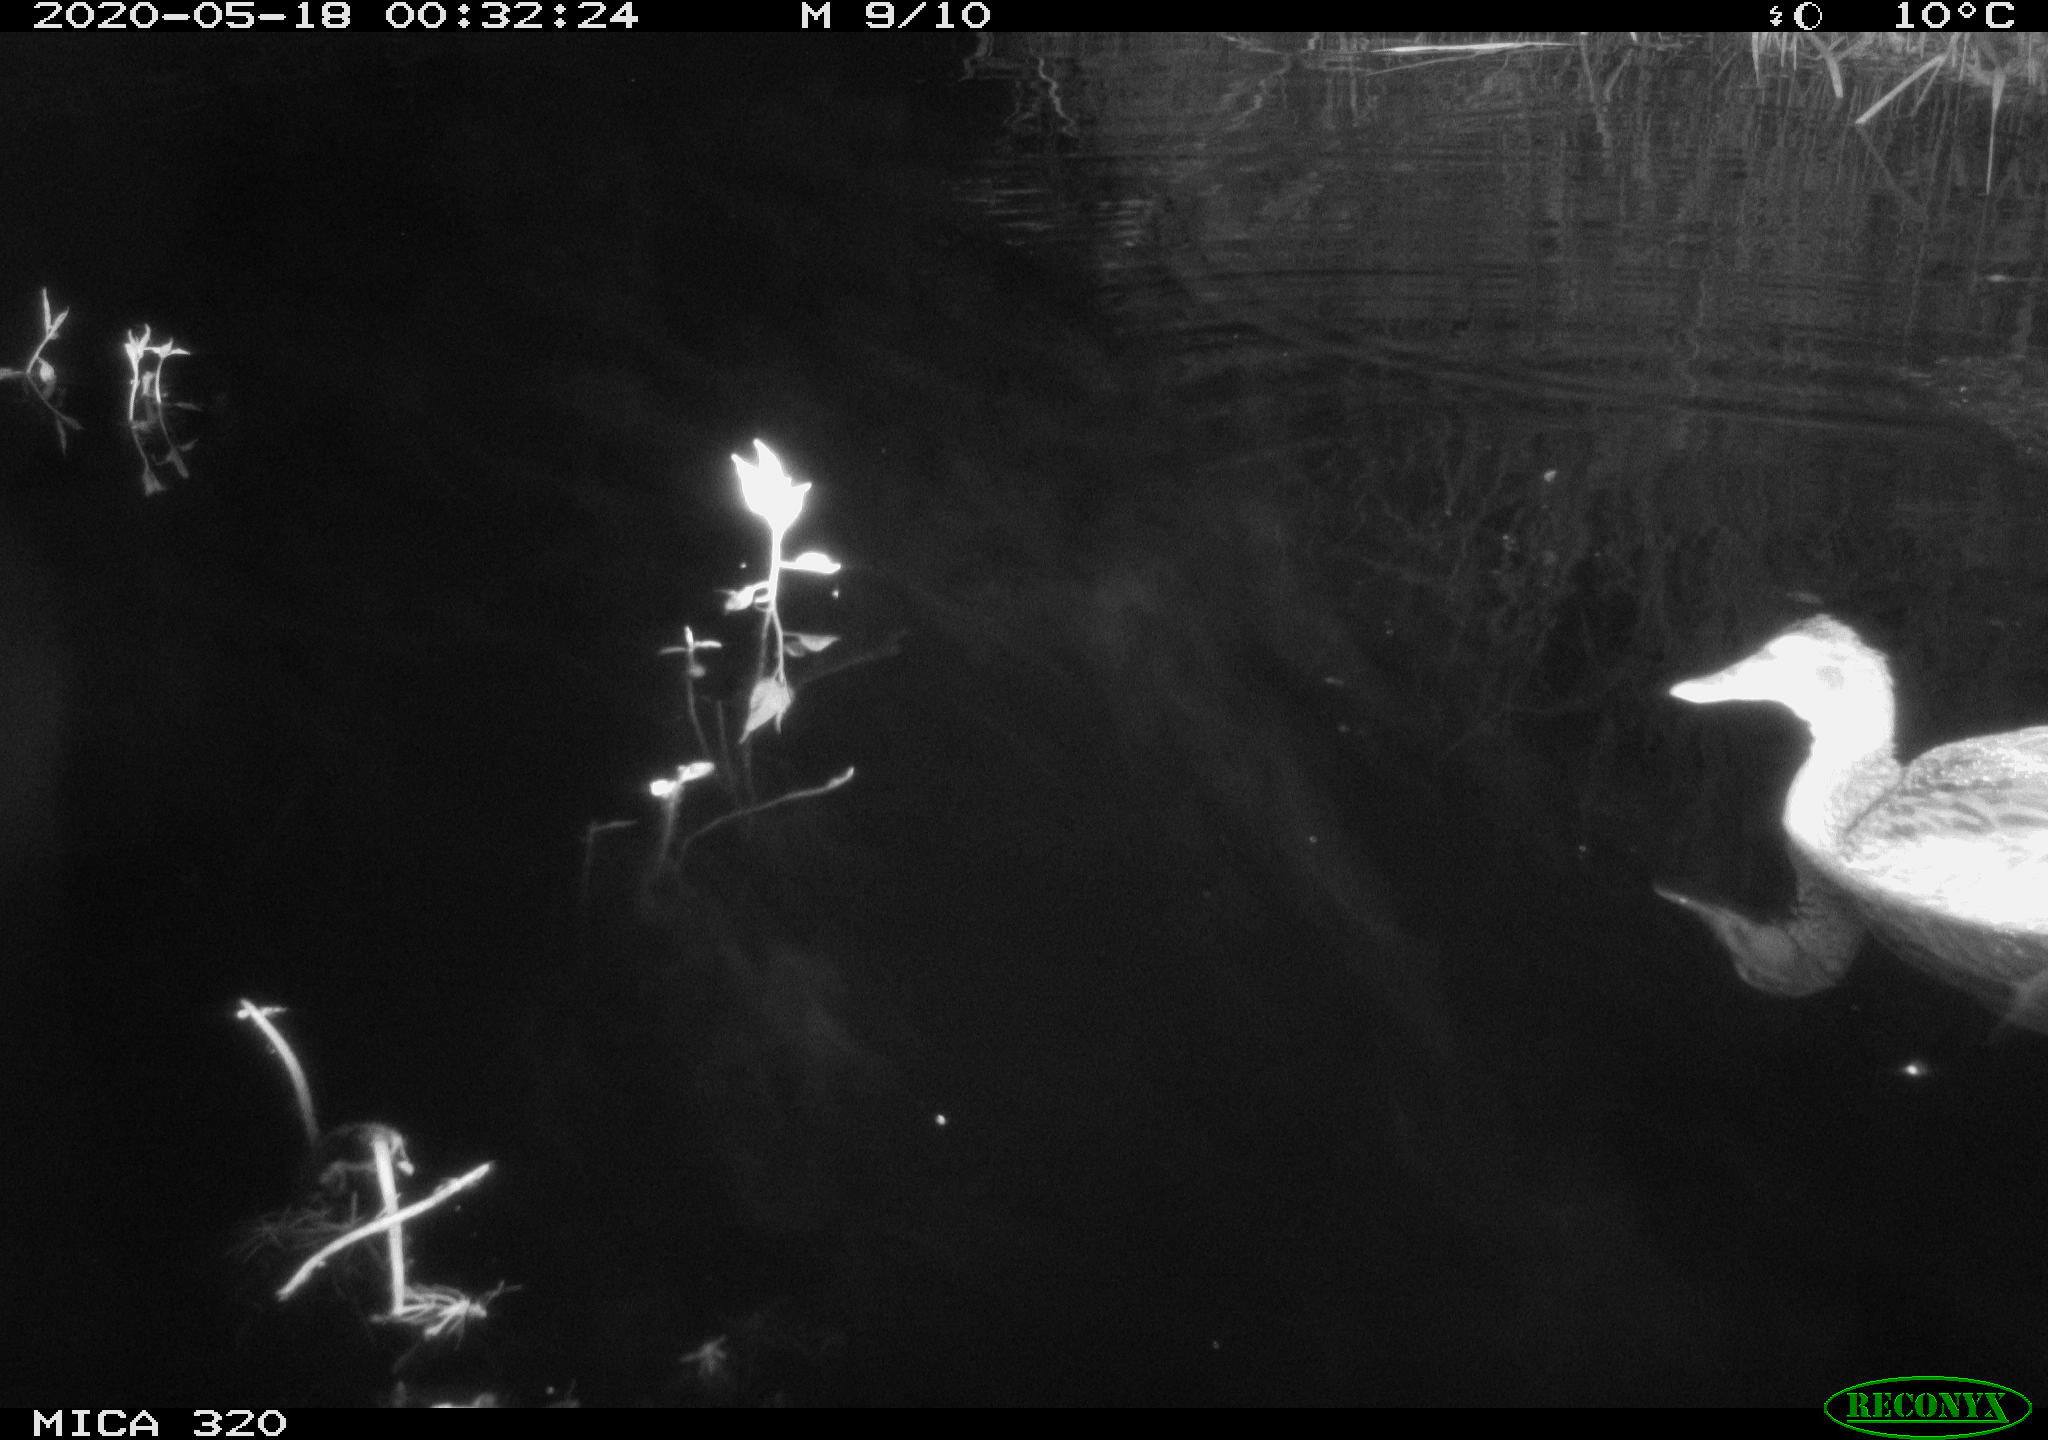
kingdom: Animalia
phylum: Chordata
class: Aves
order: Anseriformes
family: Anatidae
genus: Anas
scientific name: Anas platyrhynchos
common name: Mallard
